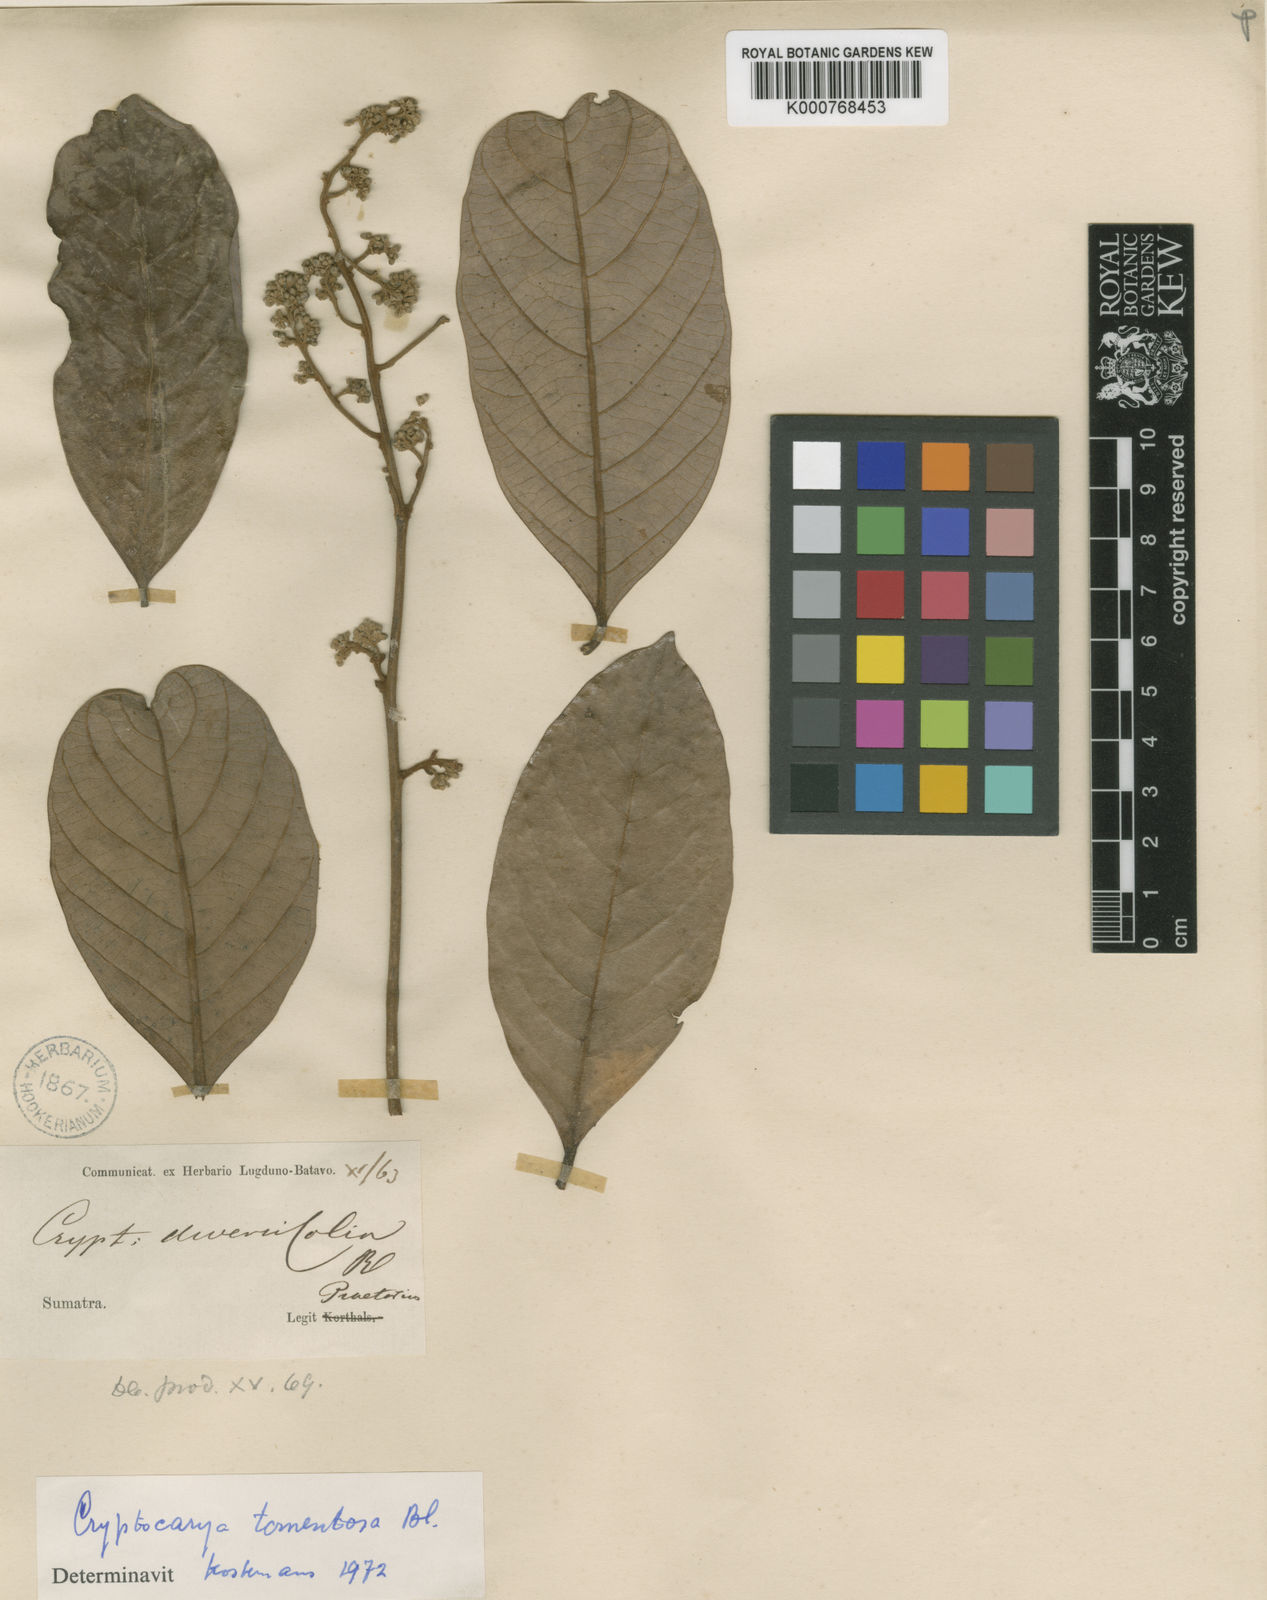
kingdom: Plantae
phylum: Tracheophyta
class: Magnoliopsida
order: Laurales
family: Lauraceae
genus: Cryptocarya
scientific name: Cryptocarya diversifolia
